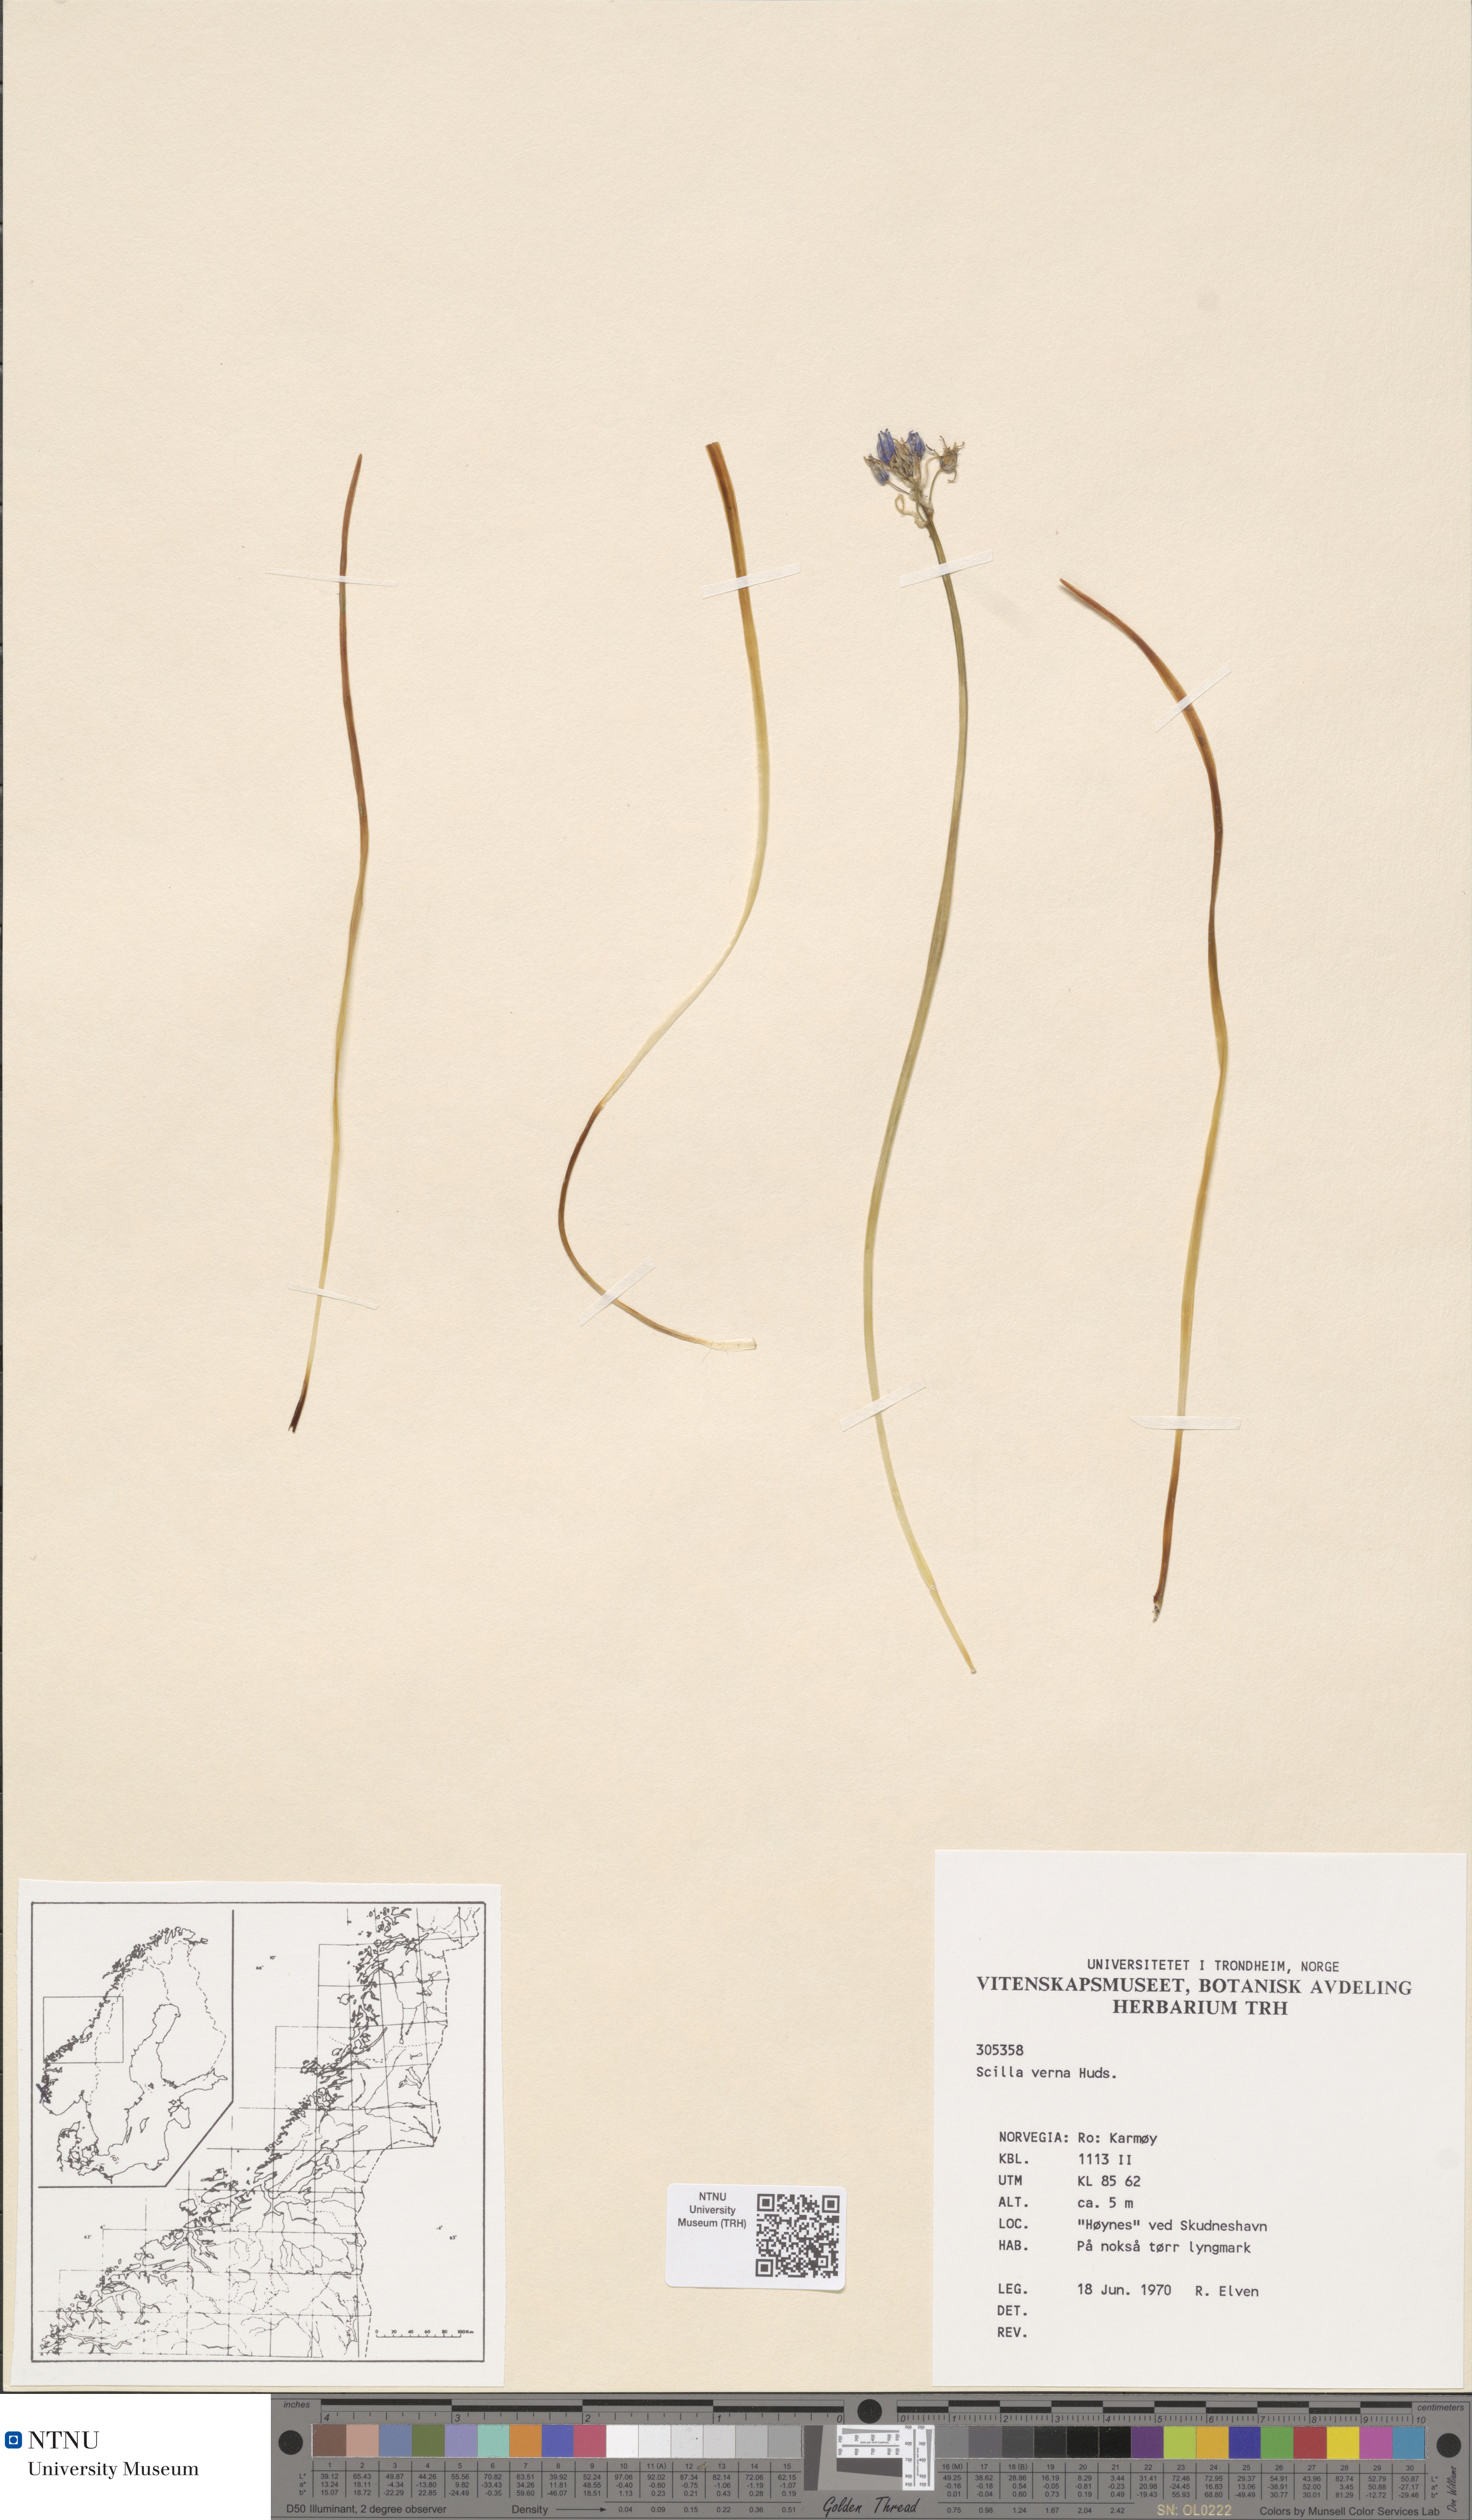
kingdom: Plantae
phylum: Tracheophyta
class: Liliopsida
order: Asparagales
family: Asparagaceae
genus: Scilla
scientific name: Scilla verna
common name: Spring squill
